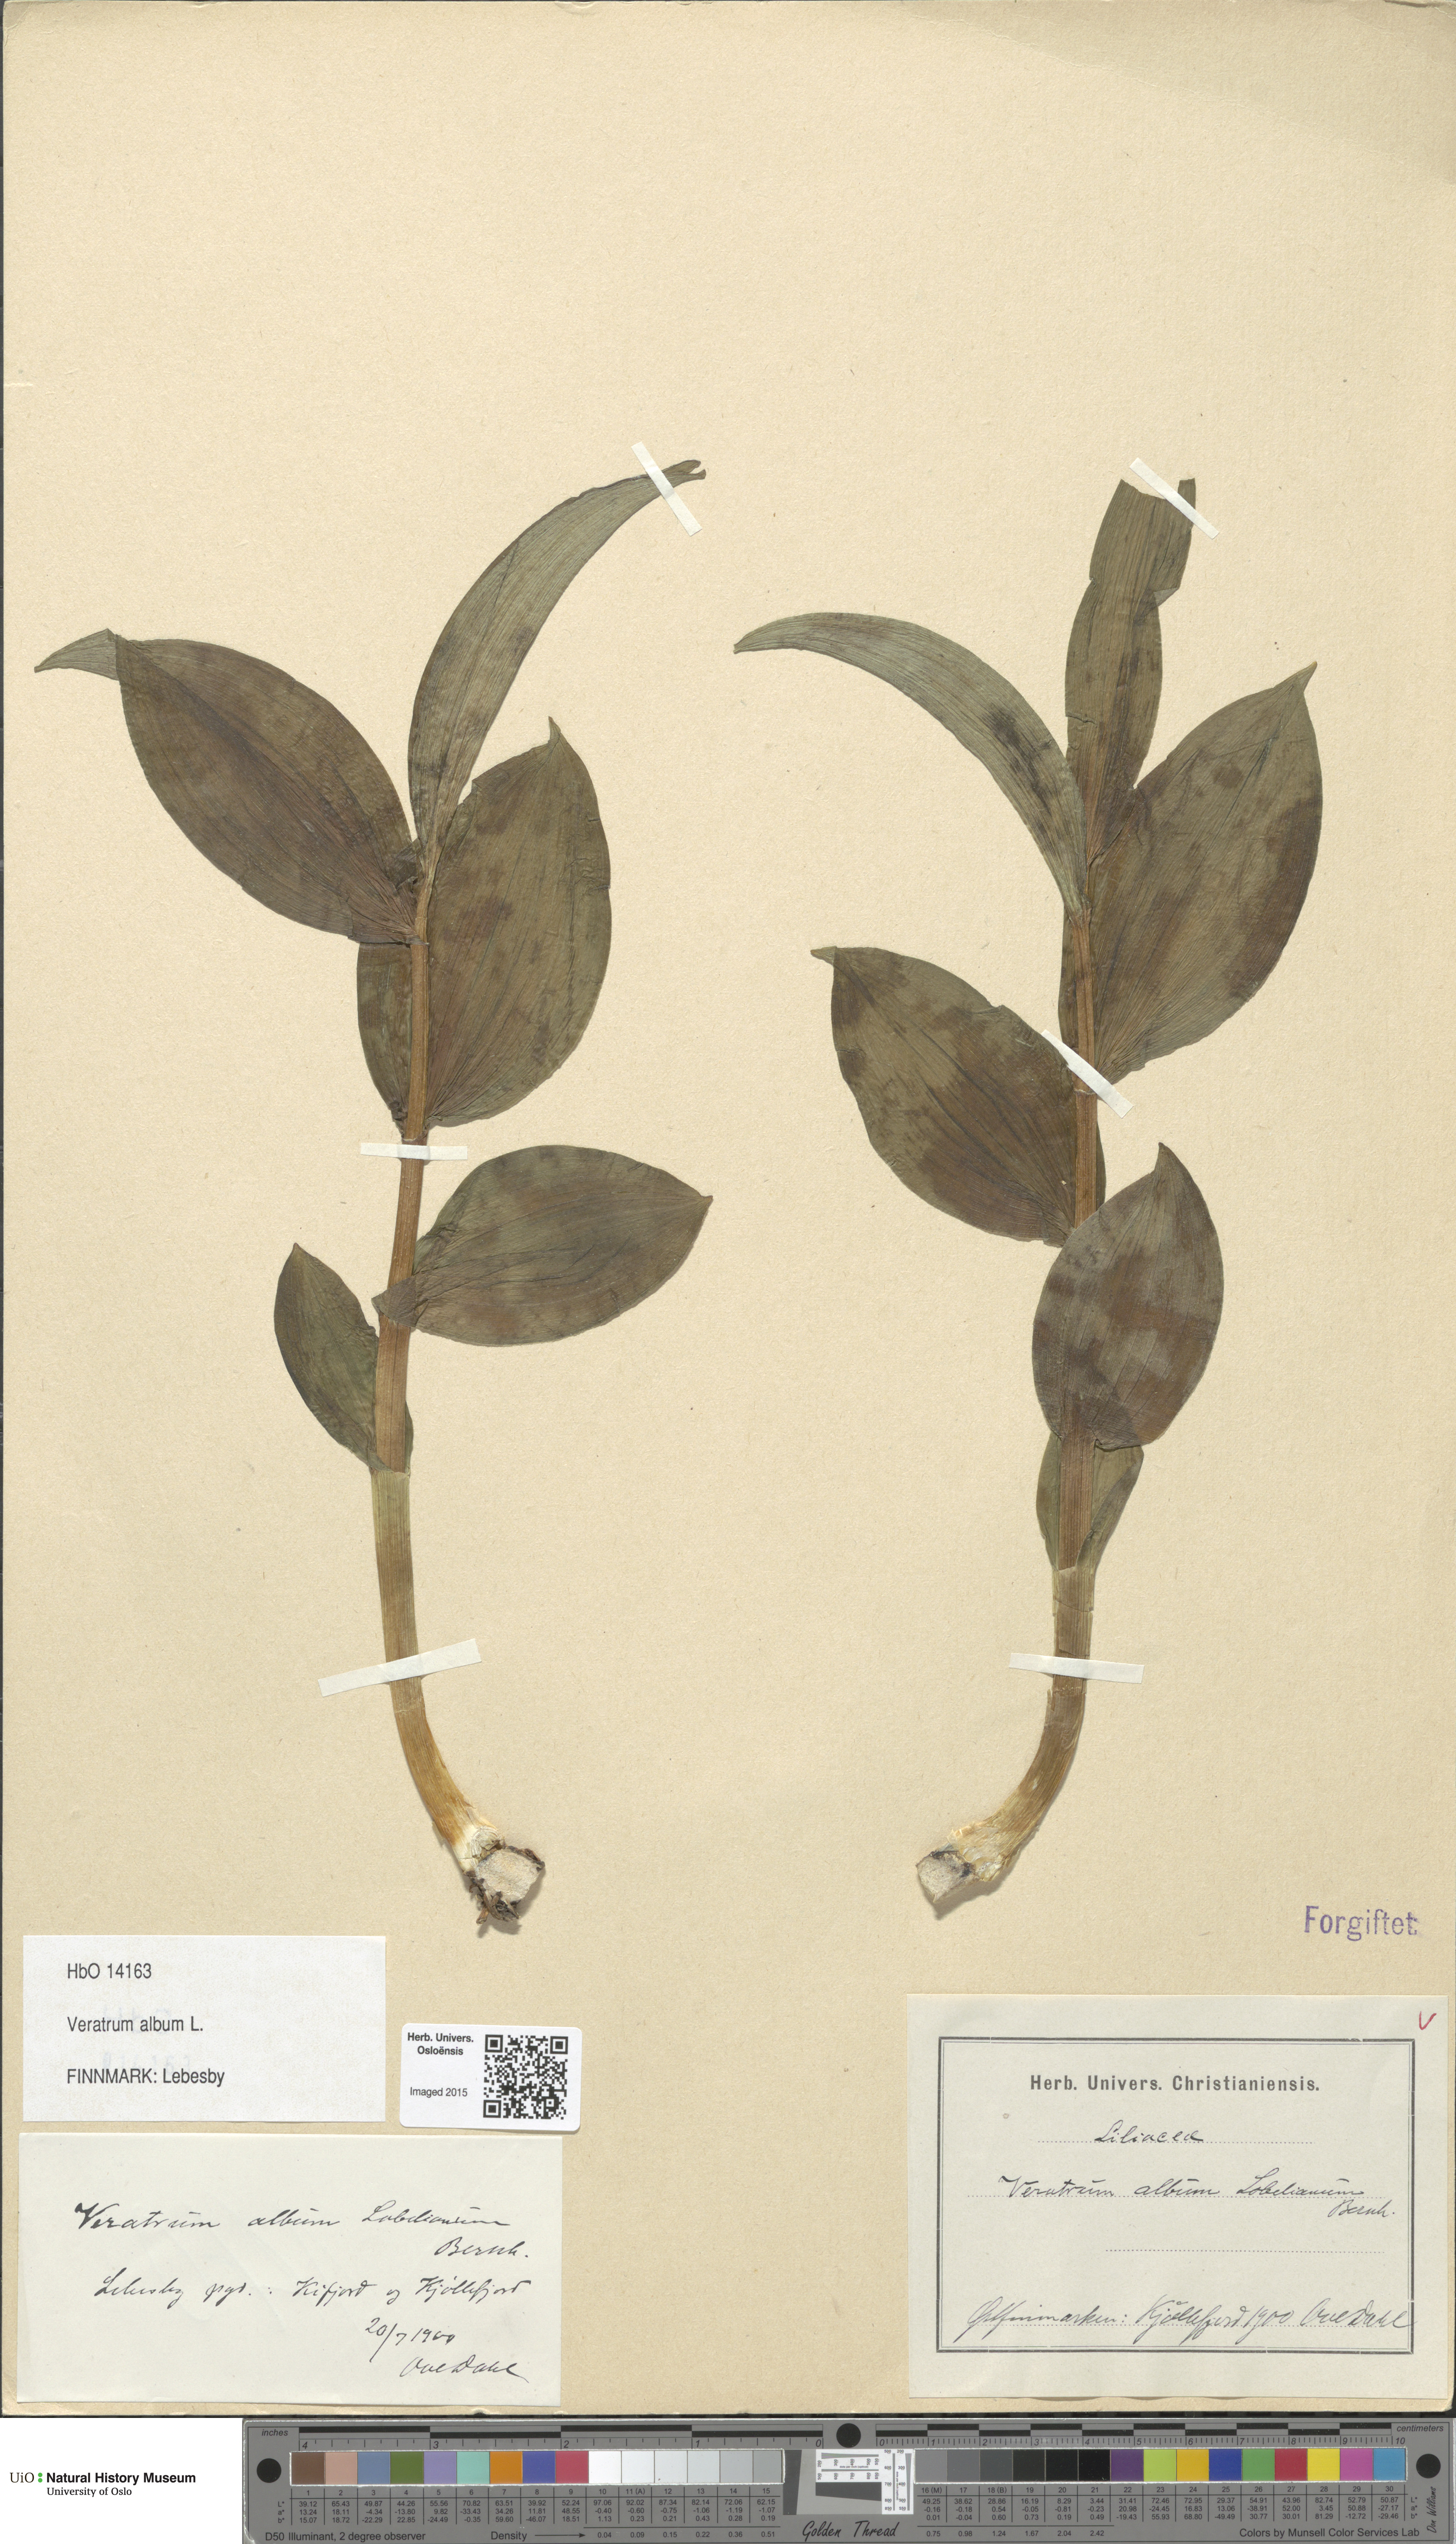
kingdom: Plantae
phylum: Tracheophyta
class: Liliopsida
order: Liliales
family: Melanthiaceae
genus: Veratrum
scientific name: Veratrum album
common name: White veratrum
